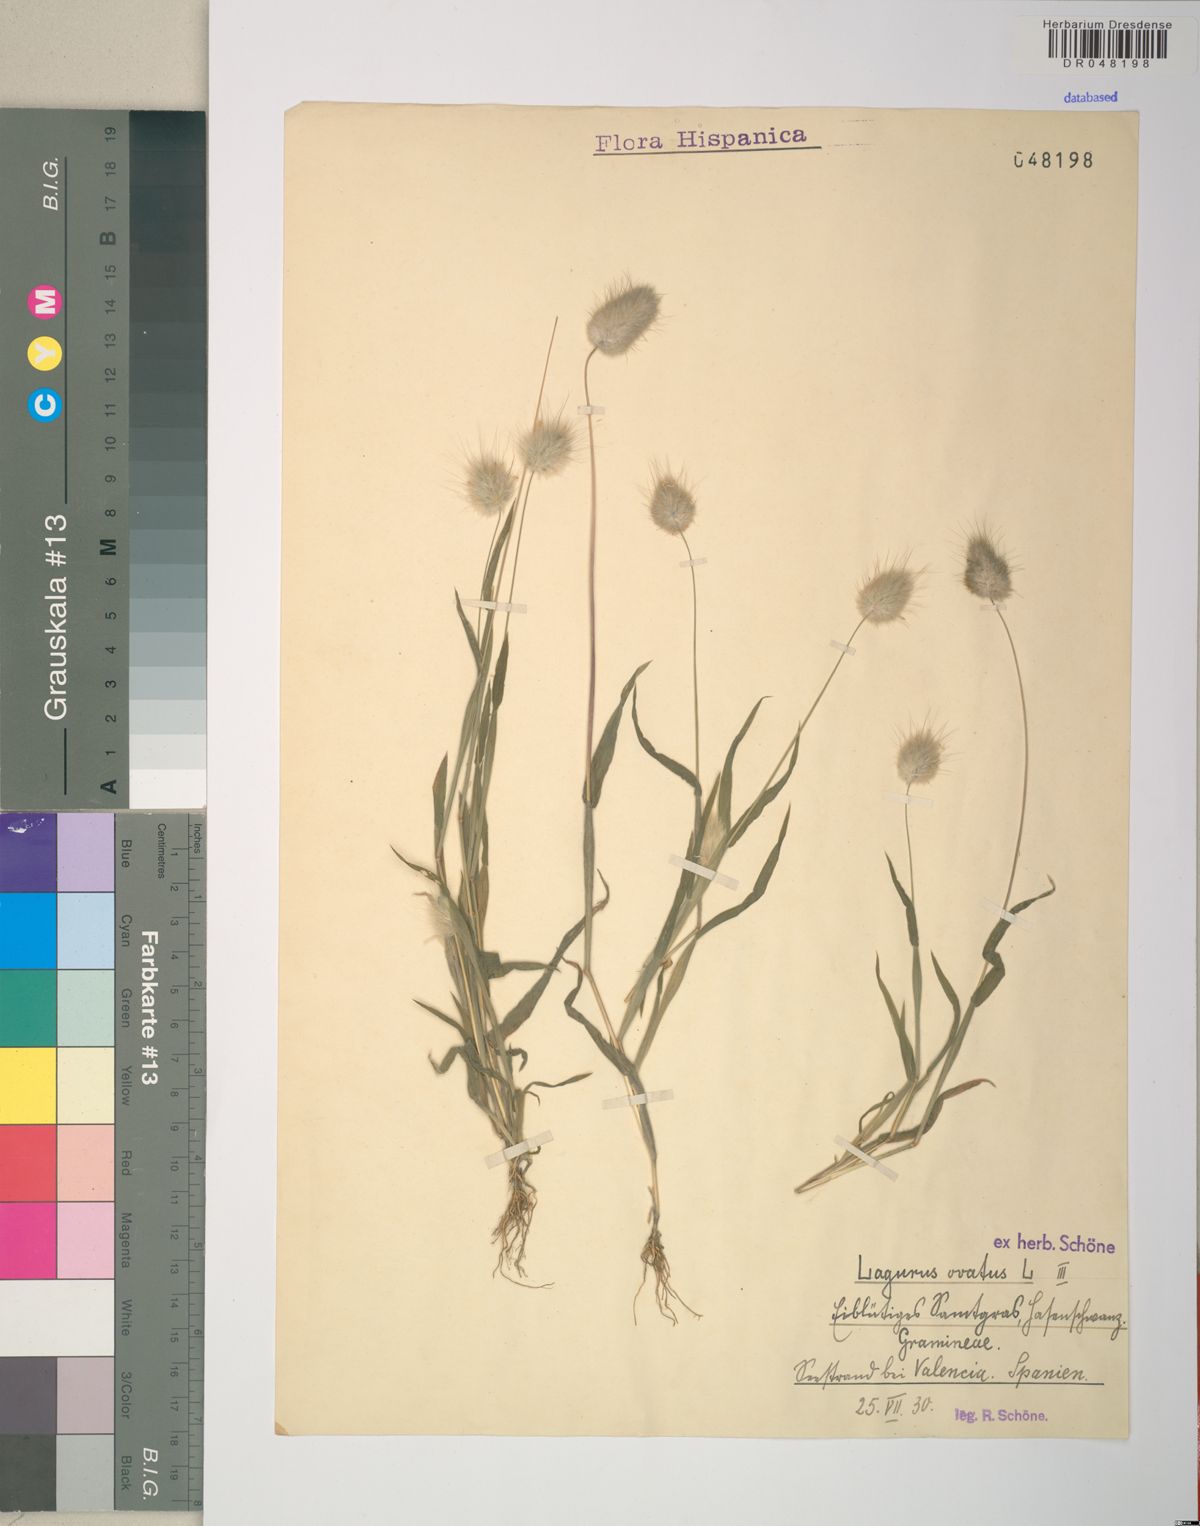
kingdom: Plantae
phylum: Tracheophyta
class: Liliopsida
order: Poales
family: Poaceae
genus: Lagurus
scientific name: Lagurus ovatus
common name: Hare's-tail
